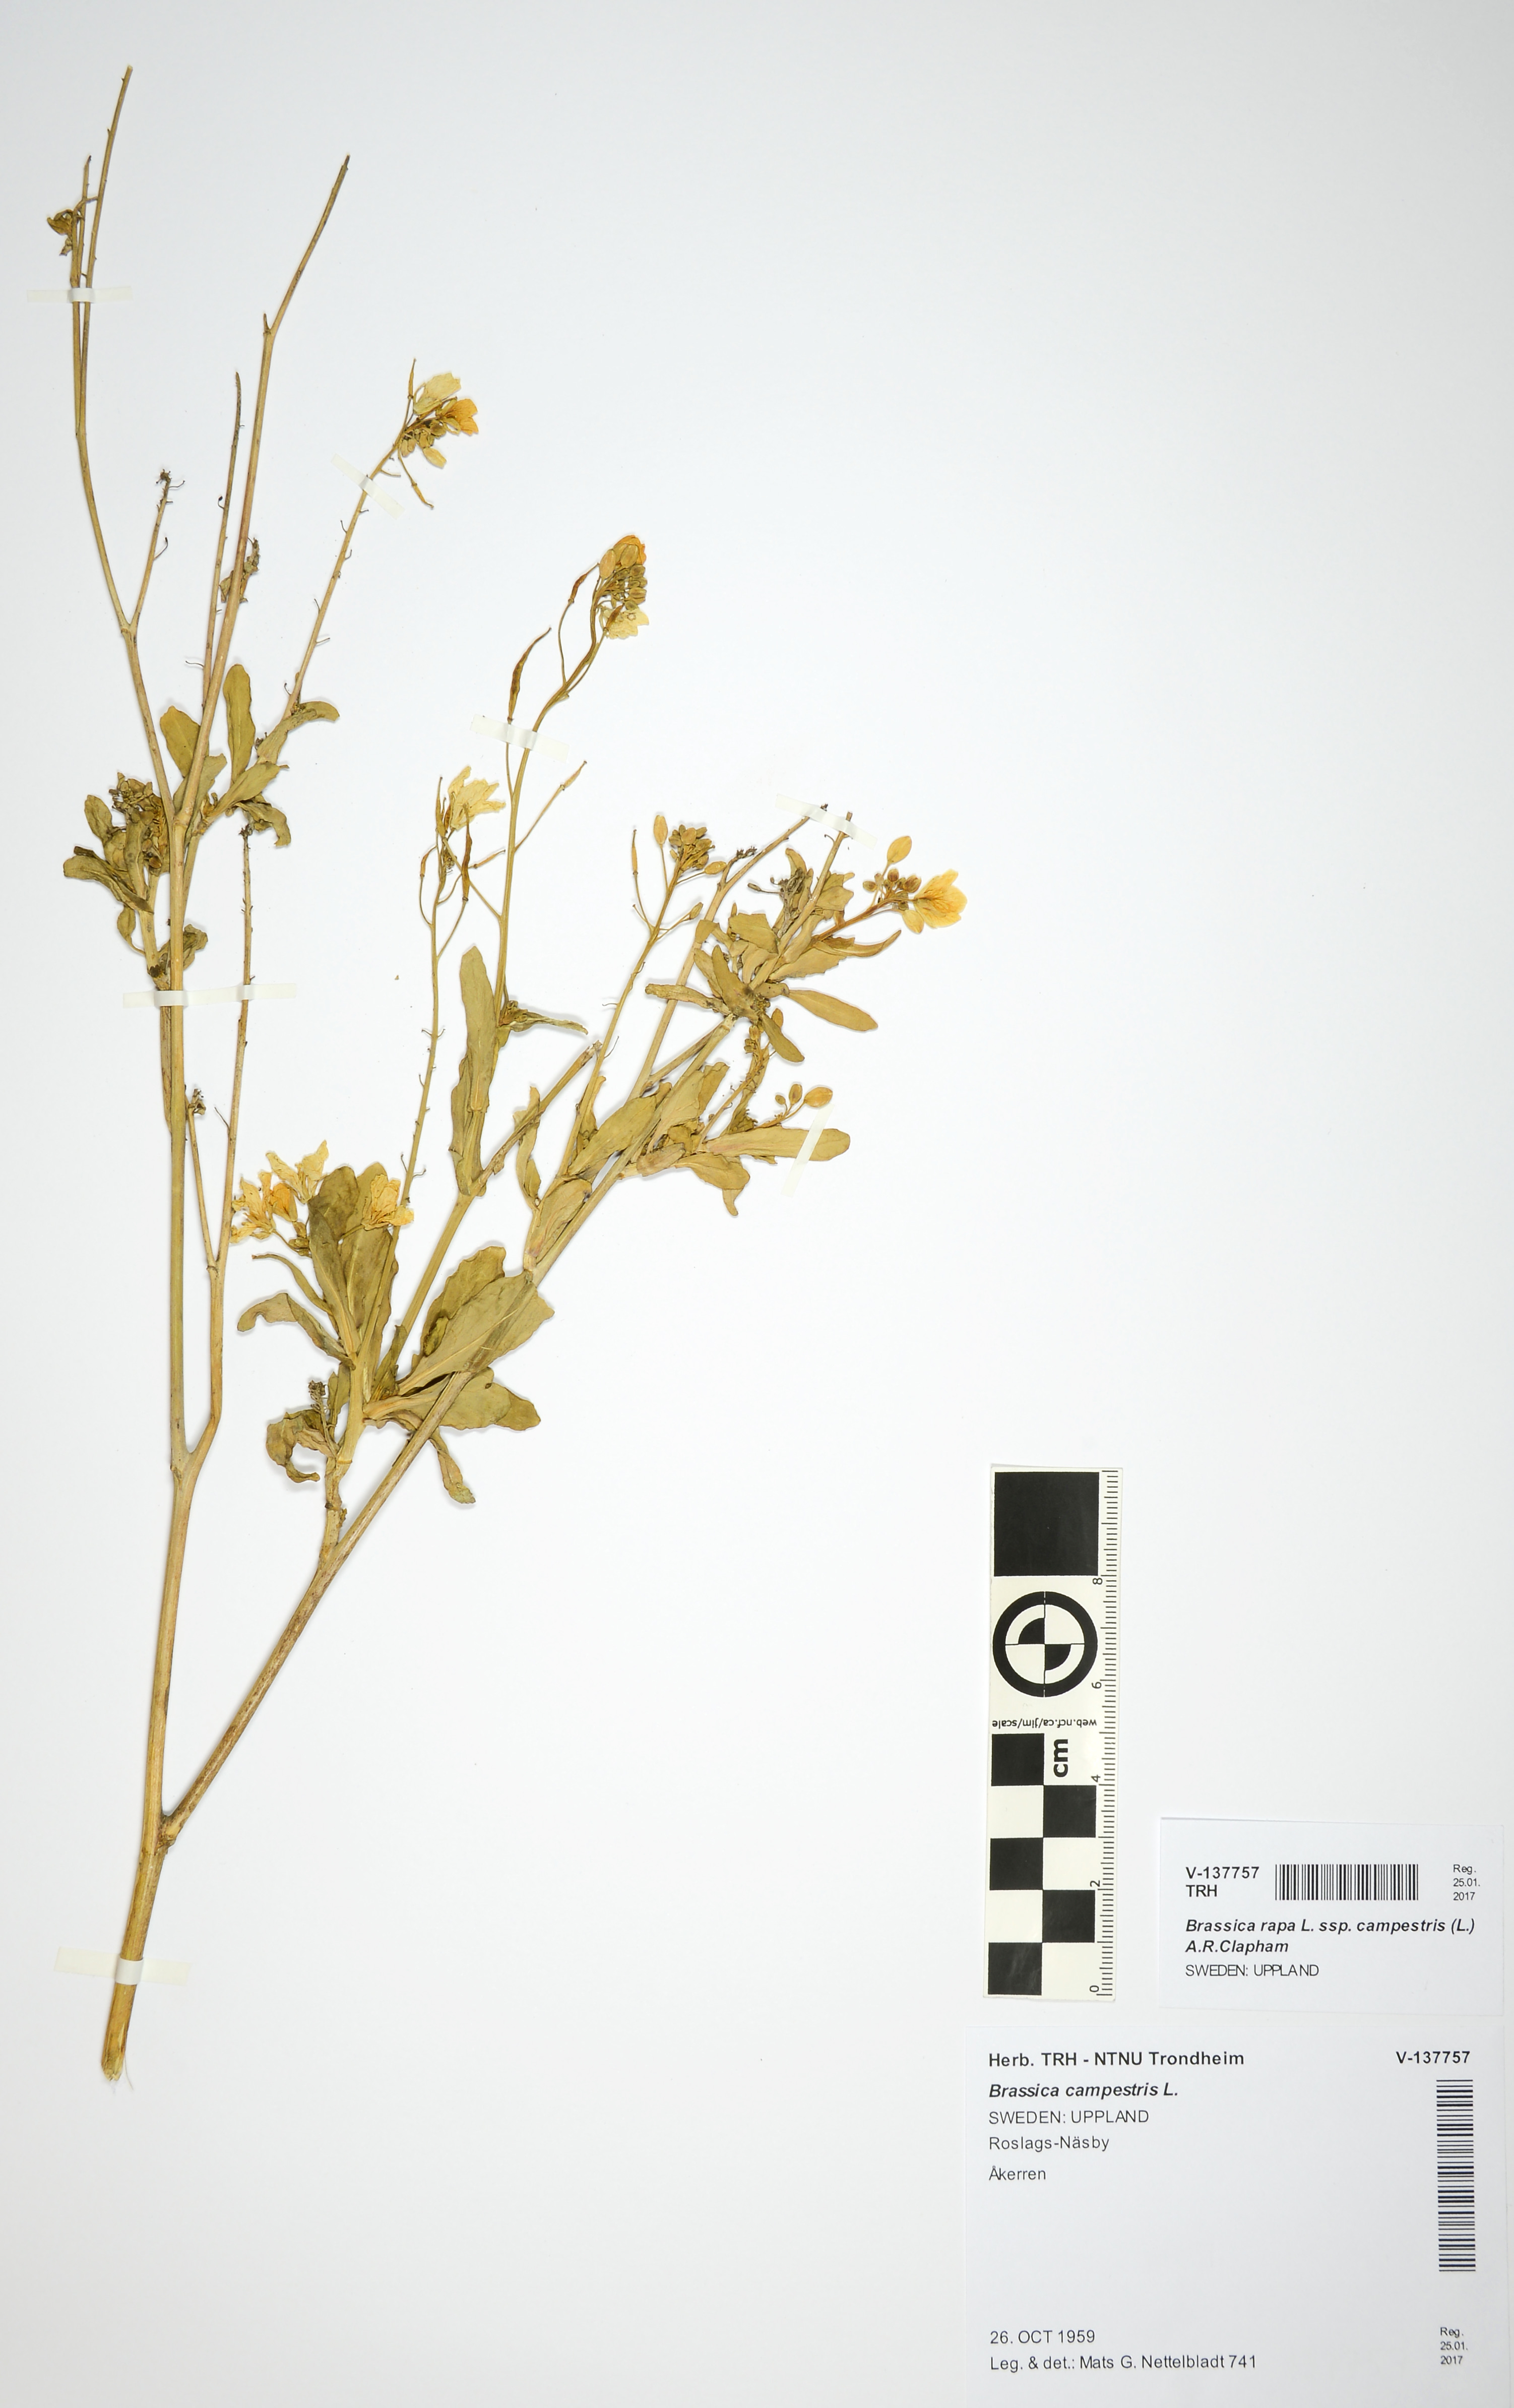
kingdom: Plantae
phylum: Tracheophyta
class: Magnoliopsida
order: Brassicales
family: Brassicaceae
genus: Brassica
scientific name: Brassica rapa
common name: Field mustard
